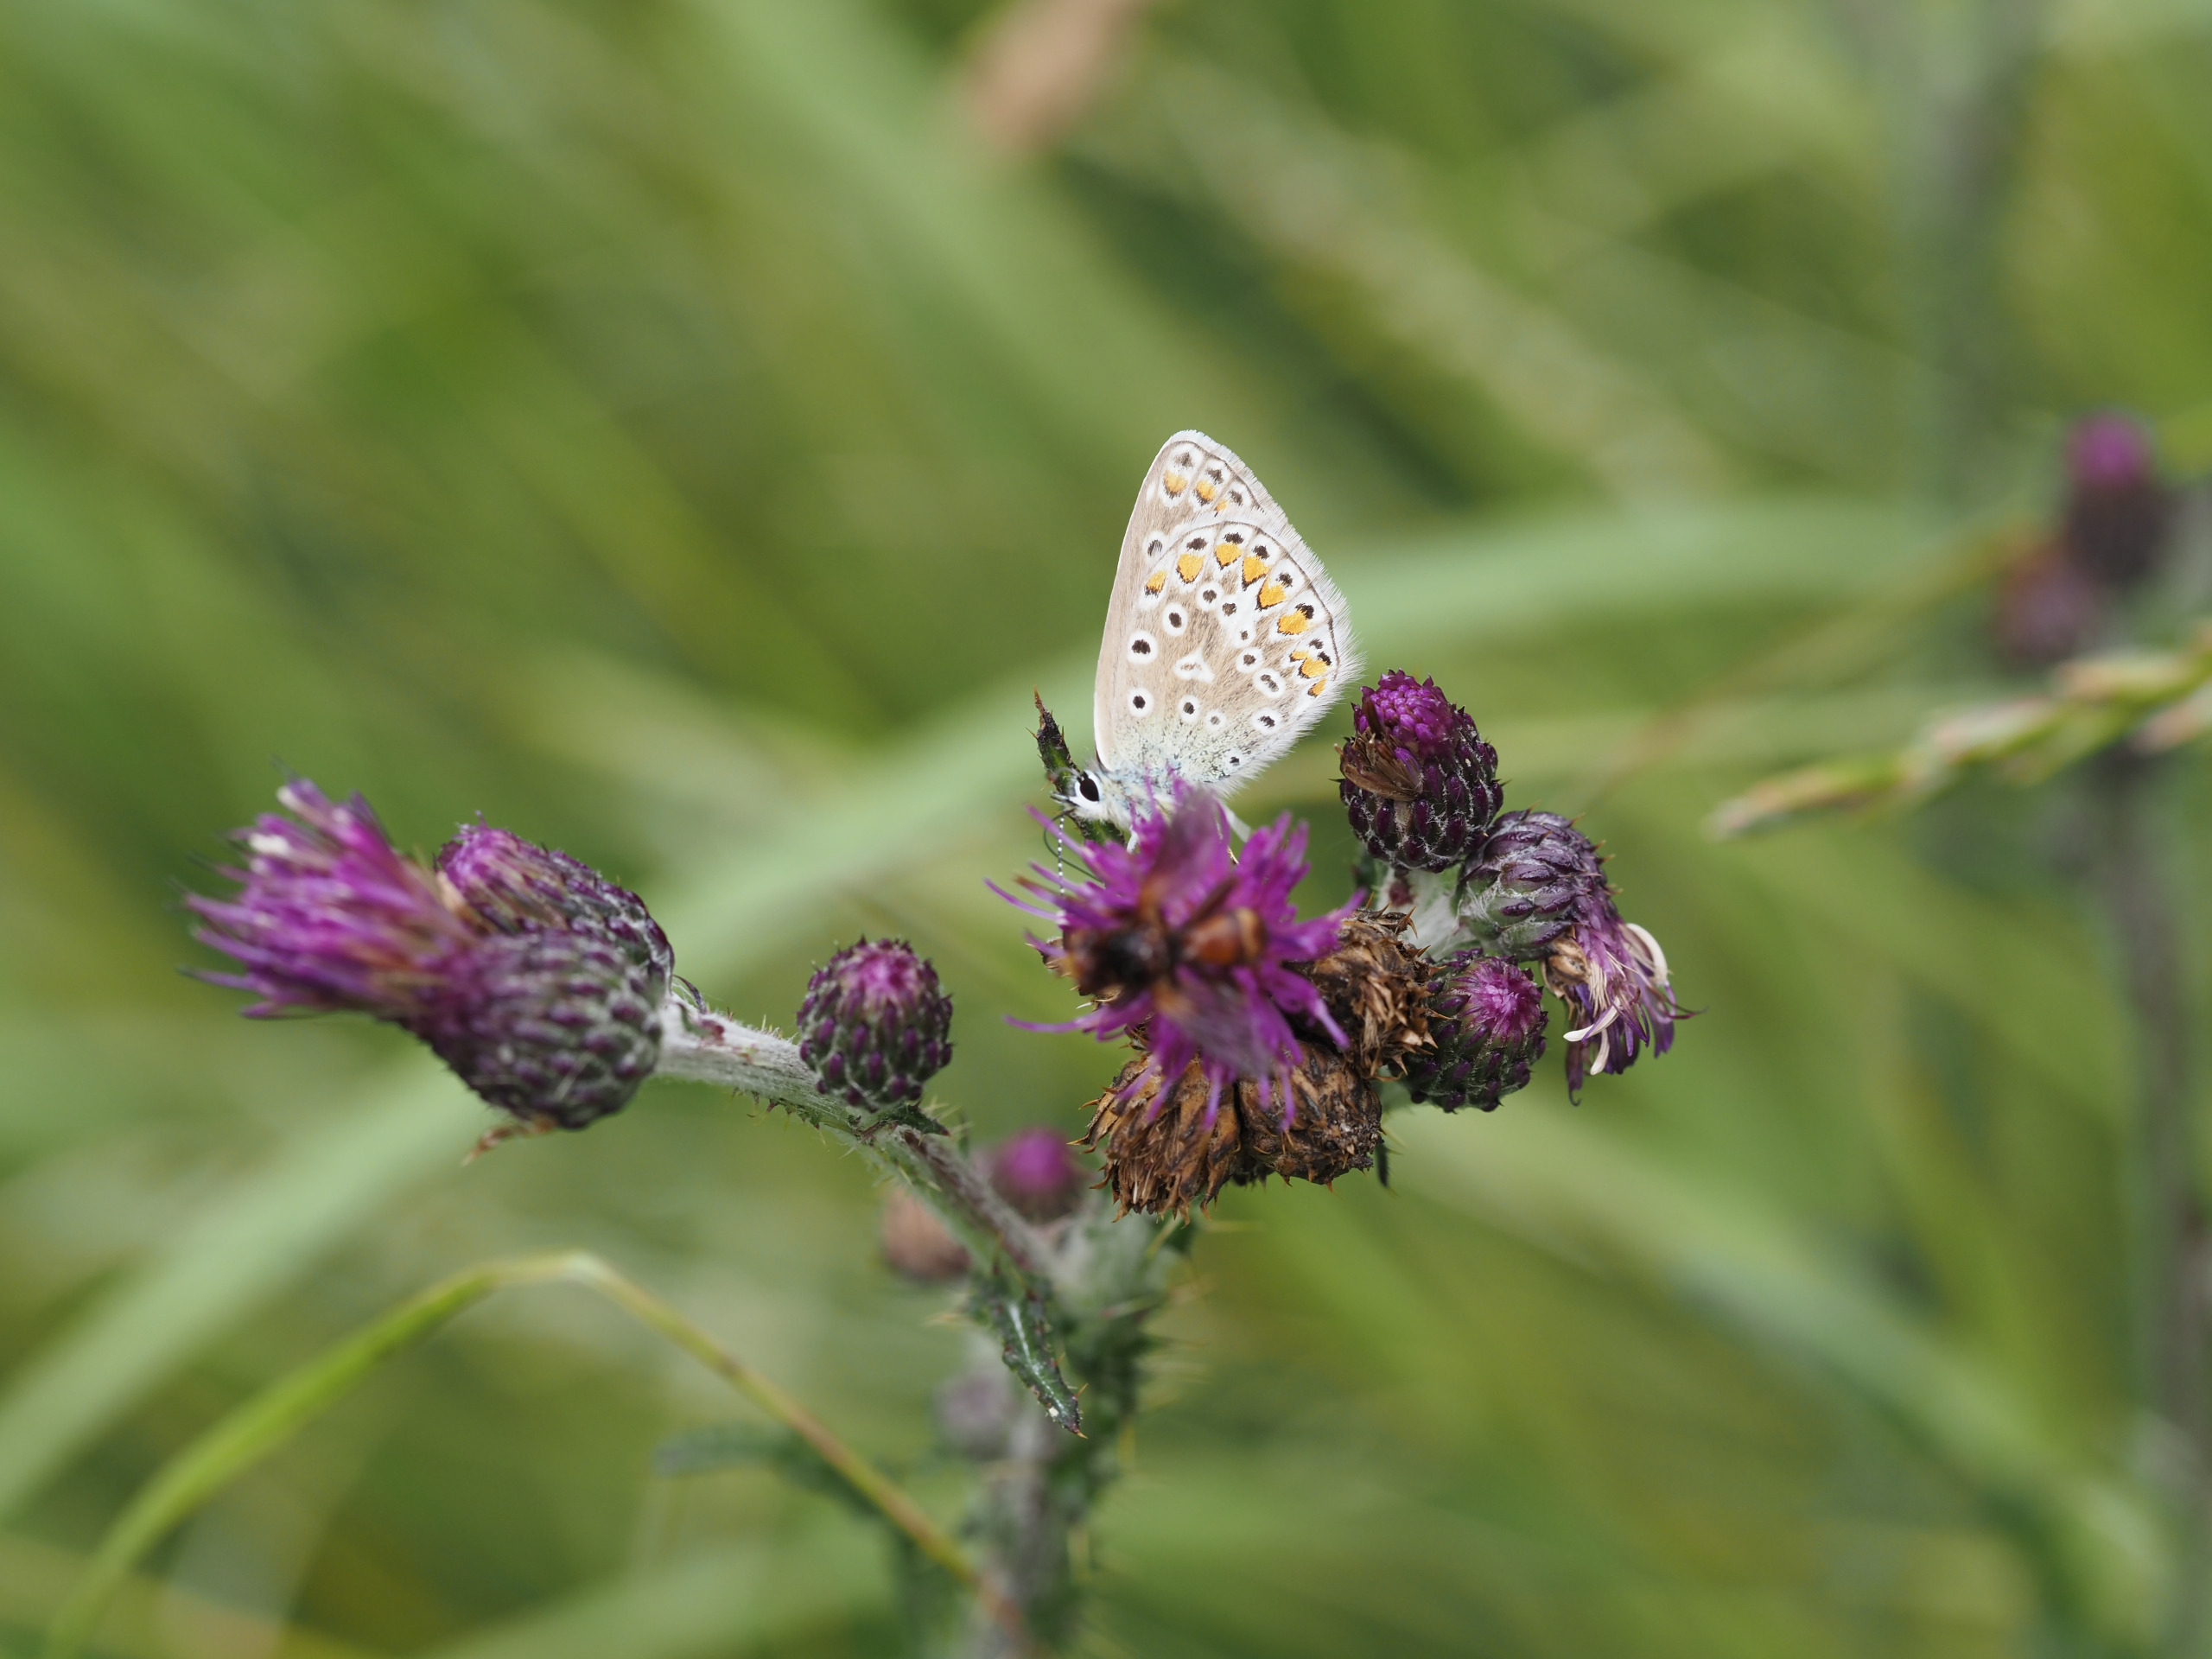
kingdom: Animalia
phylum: Arthropoda
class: Insecta
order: Lepidoptera
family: Lycaenidae
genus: Polyommatus
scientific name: Polyommatus icarus
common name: Almindelig blåfugl
